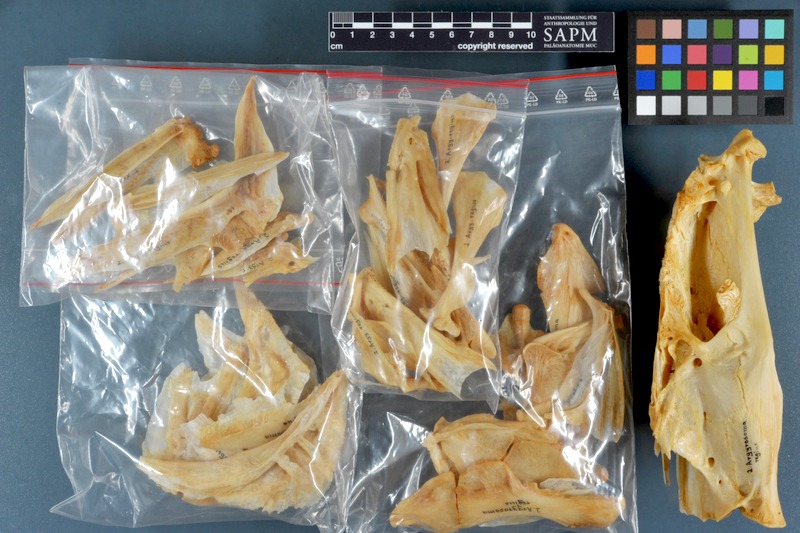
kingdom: Animalia
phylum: Chordata
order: Perciformes
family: Sciaenidae
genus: Argyrosomus
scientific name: Argyrosomus regius
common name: Meagre
